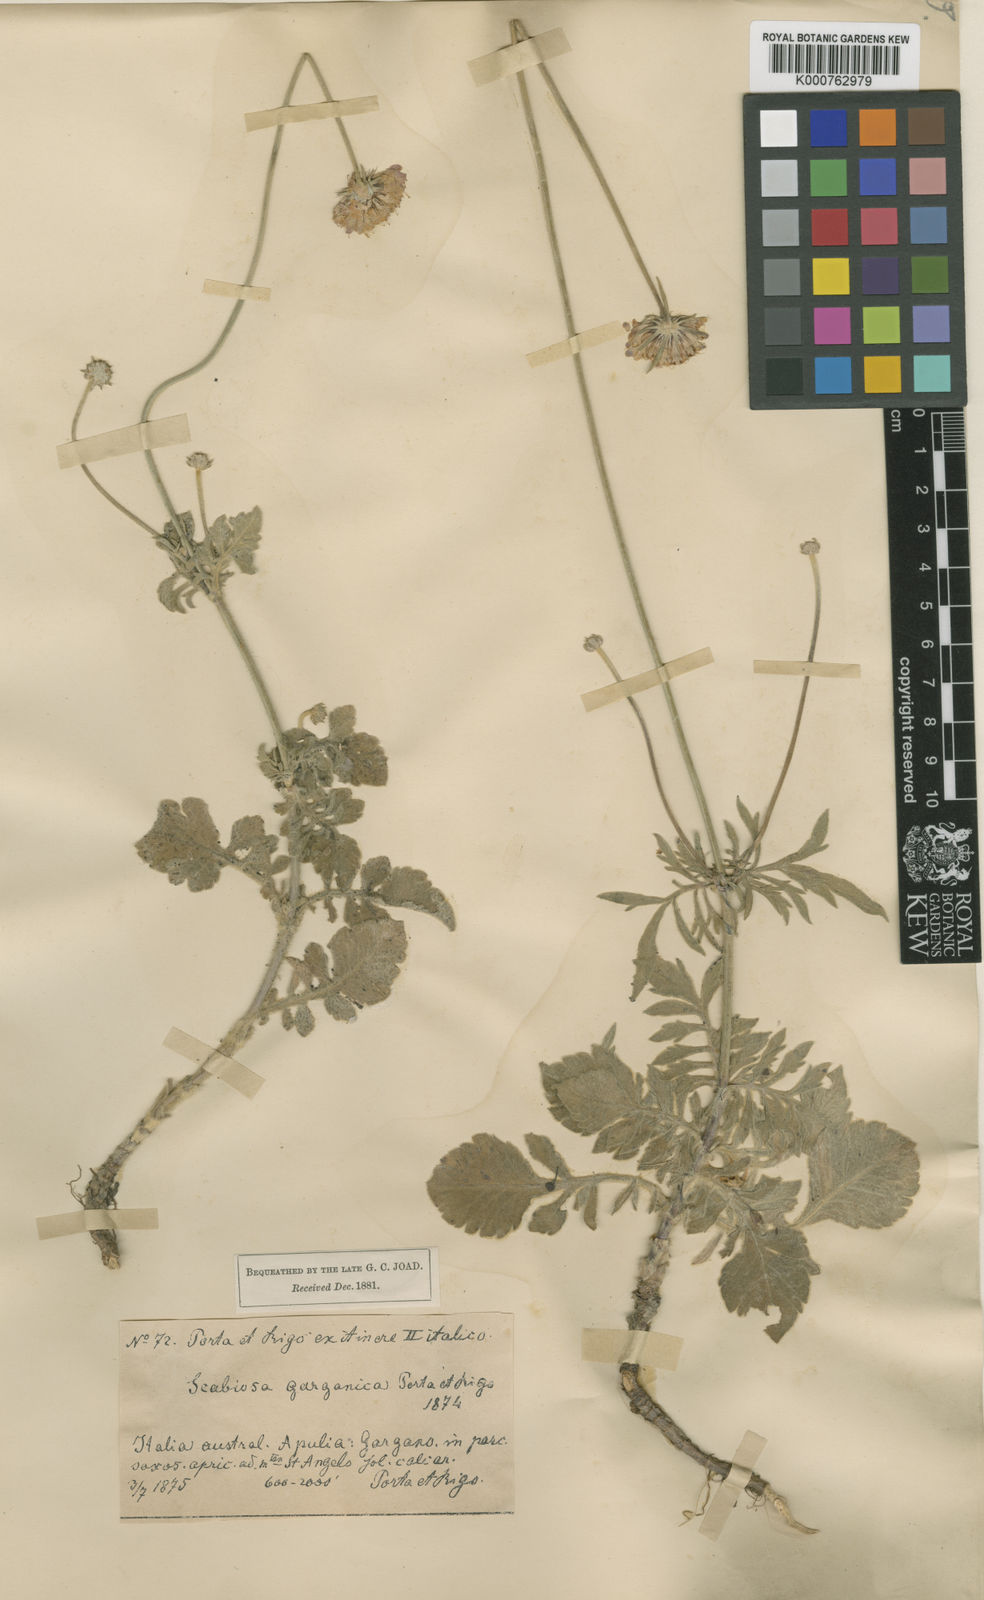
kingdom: Plantae
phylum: Tracheophyta
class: Magnoliopsida
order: Dipsacales
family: Caprifoliaceae
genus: Scabiosa
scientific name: Scabiosa holosericea
